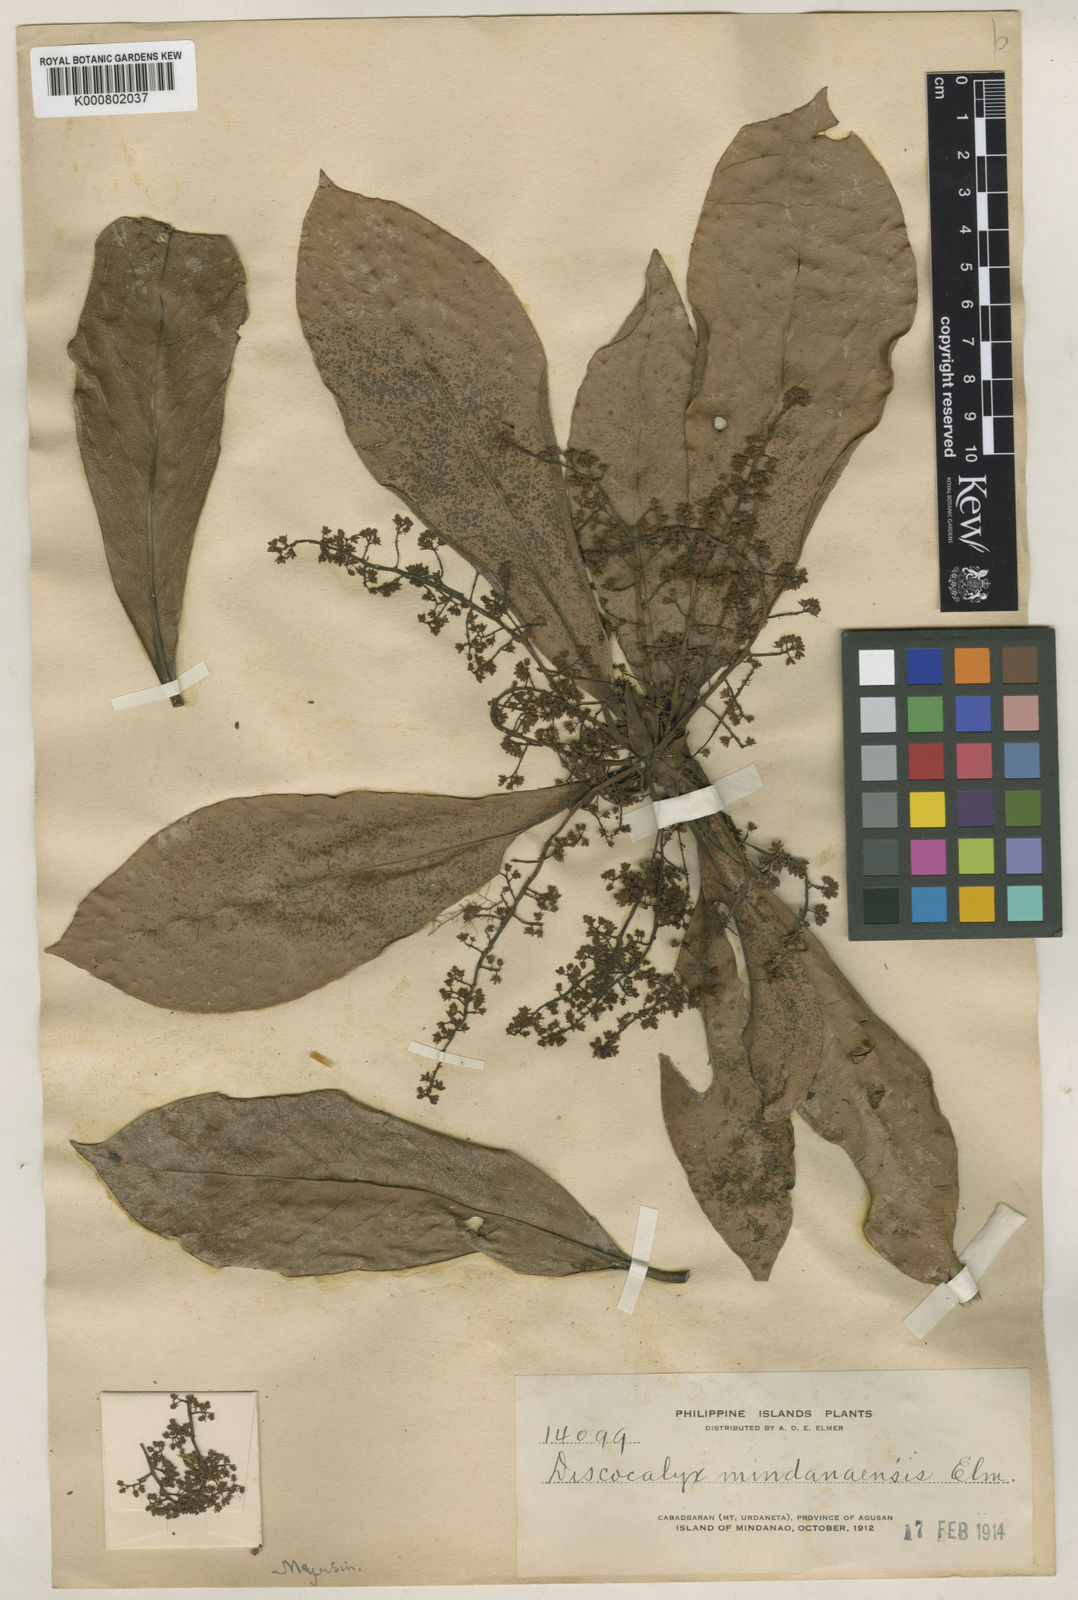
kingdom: Plantae
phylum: Tracheophyta
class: Magnoliopsida
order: Ericales
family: Primulaceae
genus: Discocalyx
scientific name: Discocalyx mindanaensis
